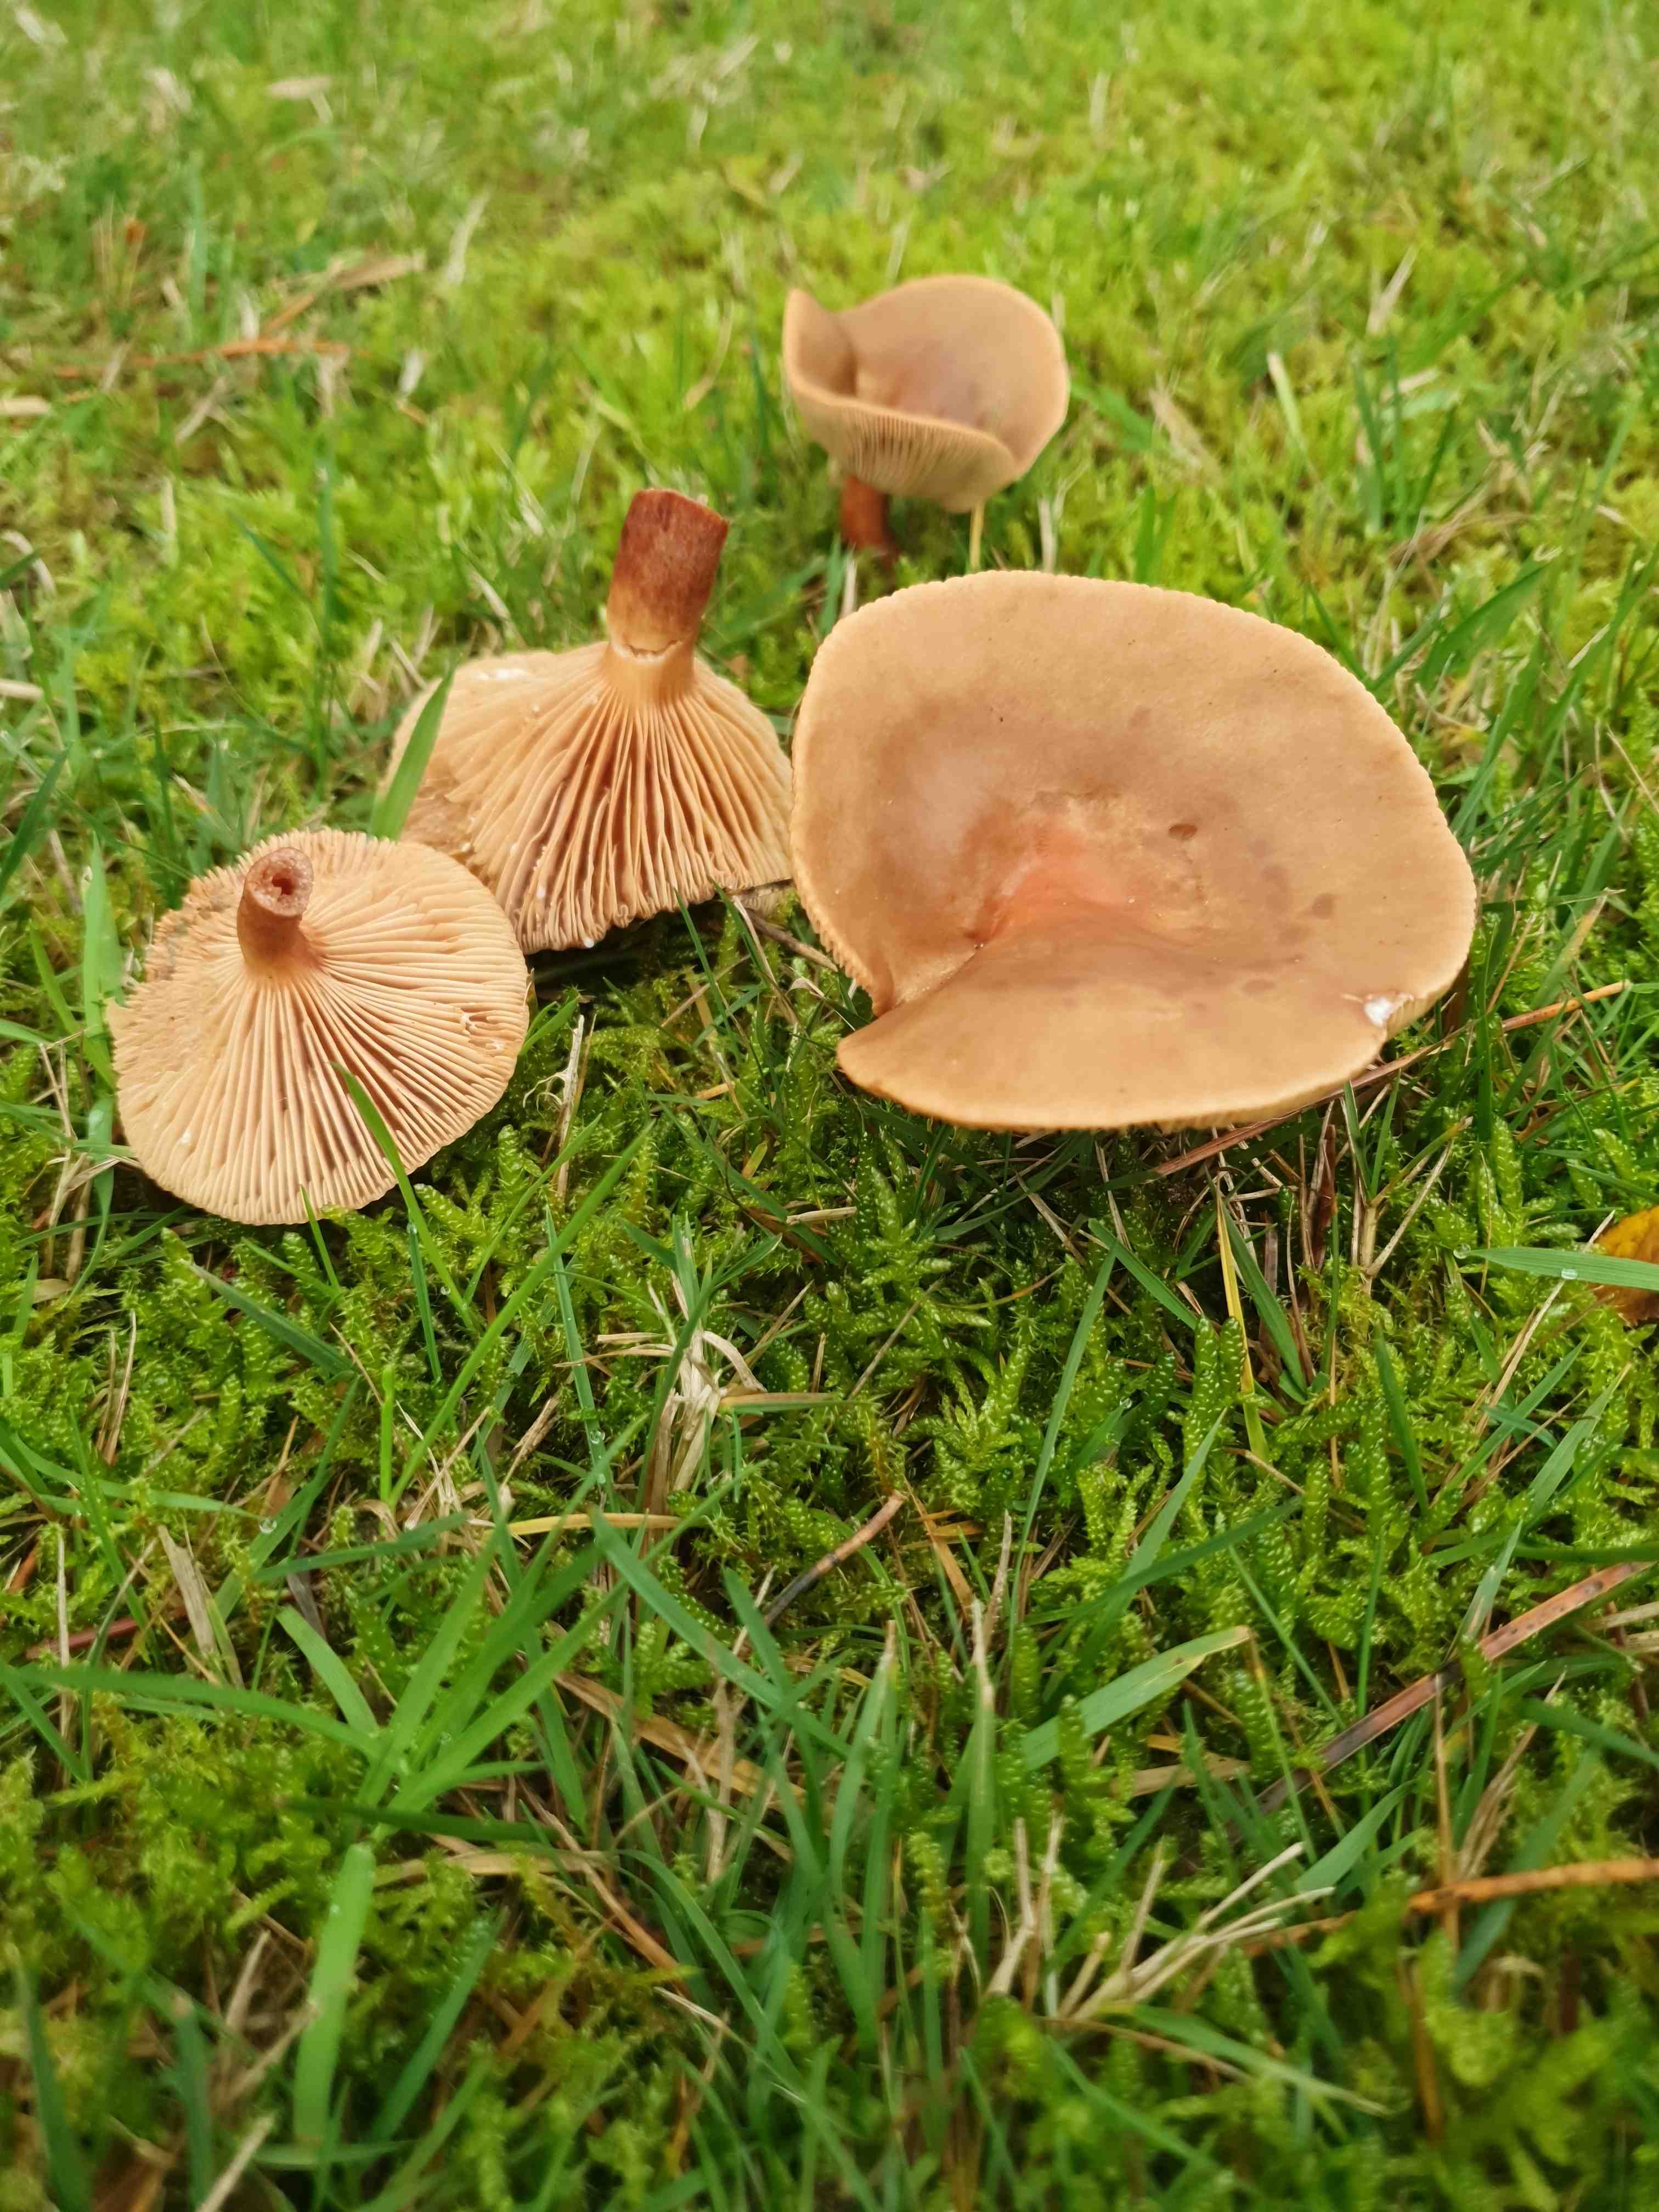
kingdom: Fungi
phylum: Basidiomycota
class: Agaricomycetes
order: Russulales
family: Russulaceae
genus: Lactarius
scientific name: Lactarius hepaticus
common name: leverbrun mælkehat
